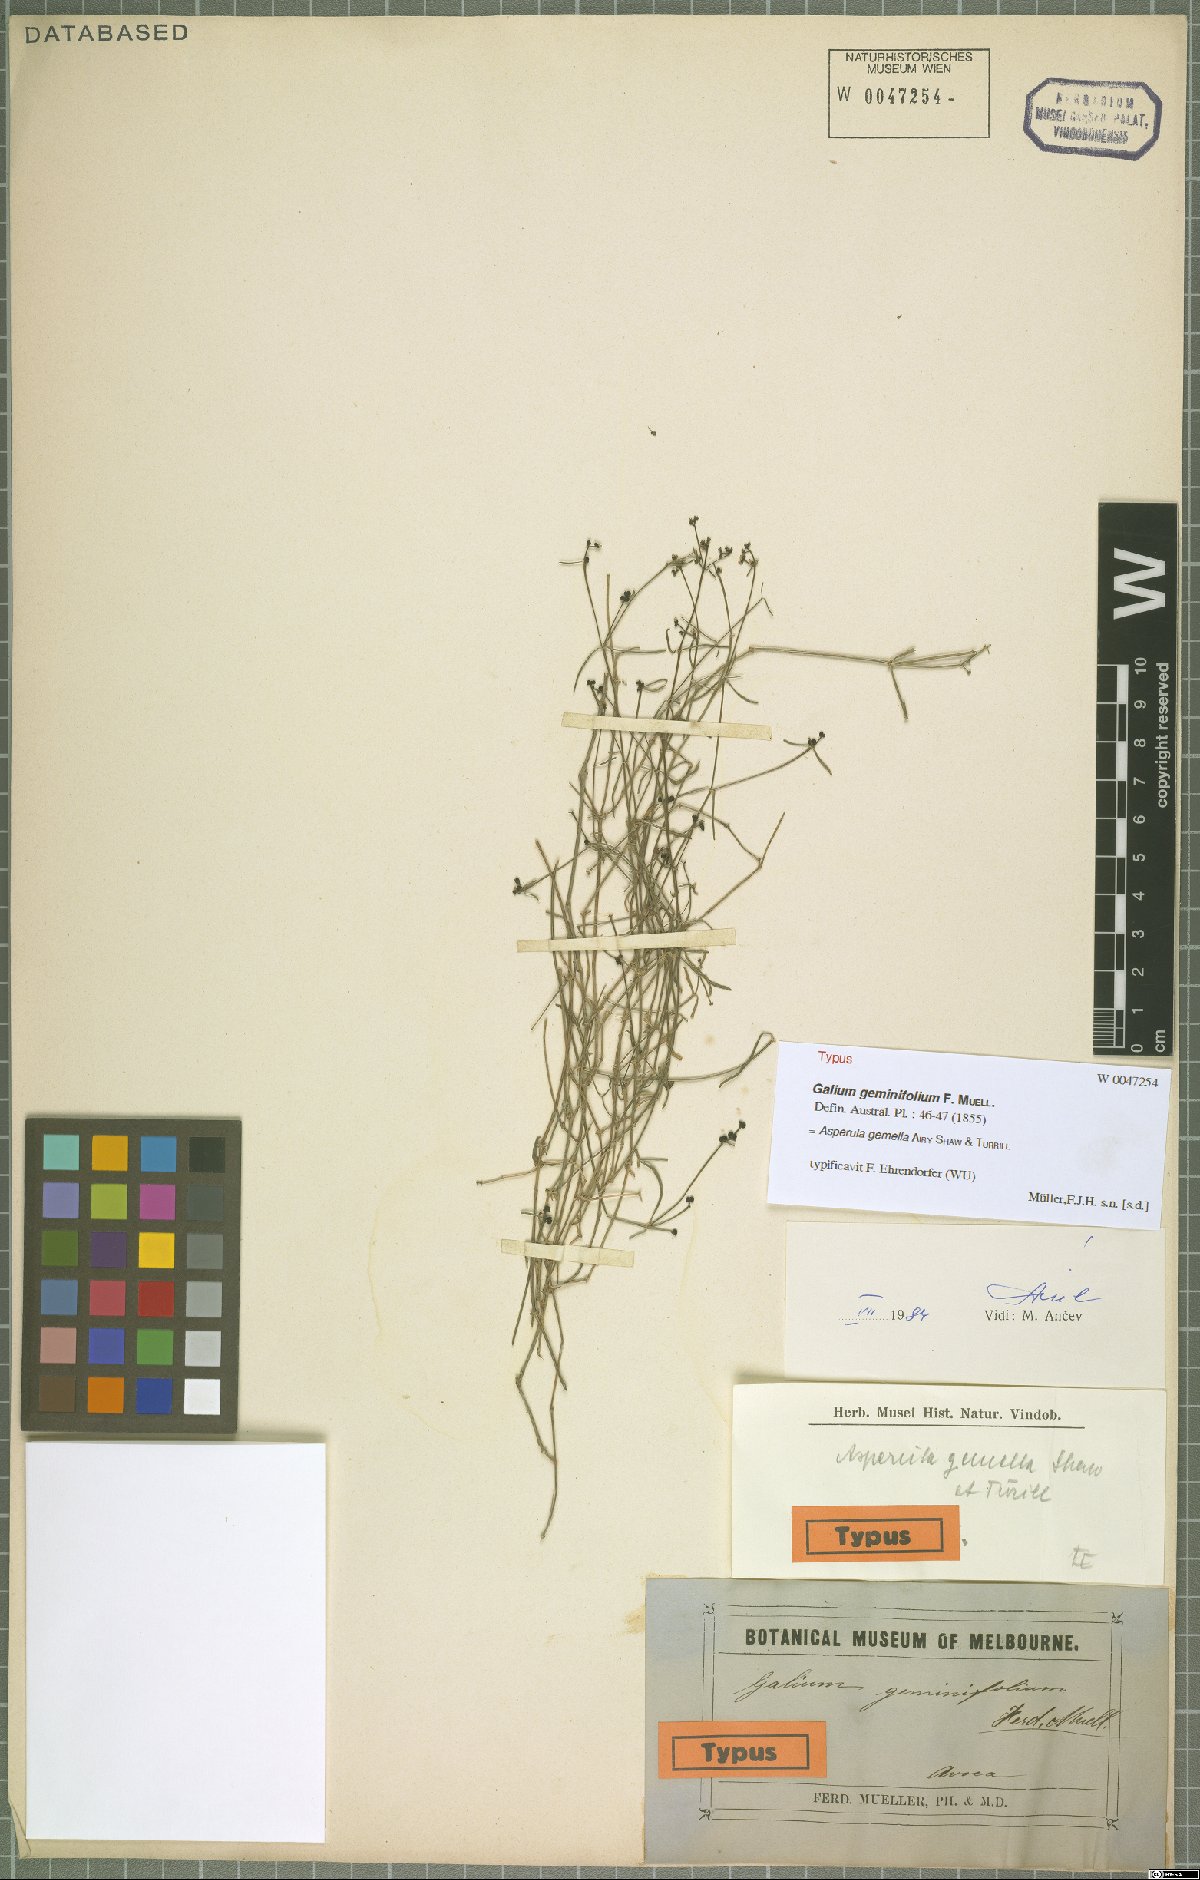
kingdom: Plantae
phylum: Tracheophyta
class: Magnoliopsida
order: Gentianales
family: Rubiaceae
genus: Asperula
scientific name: Asperula gemella
